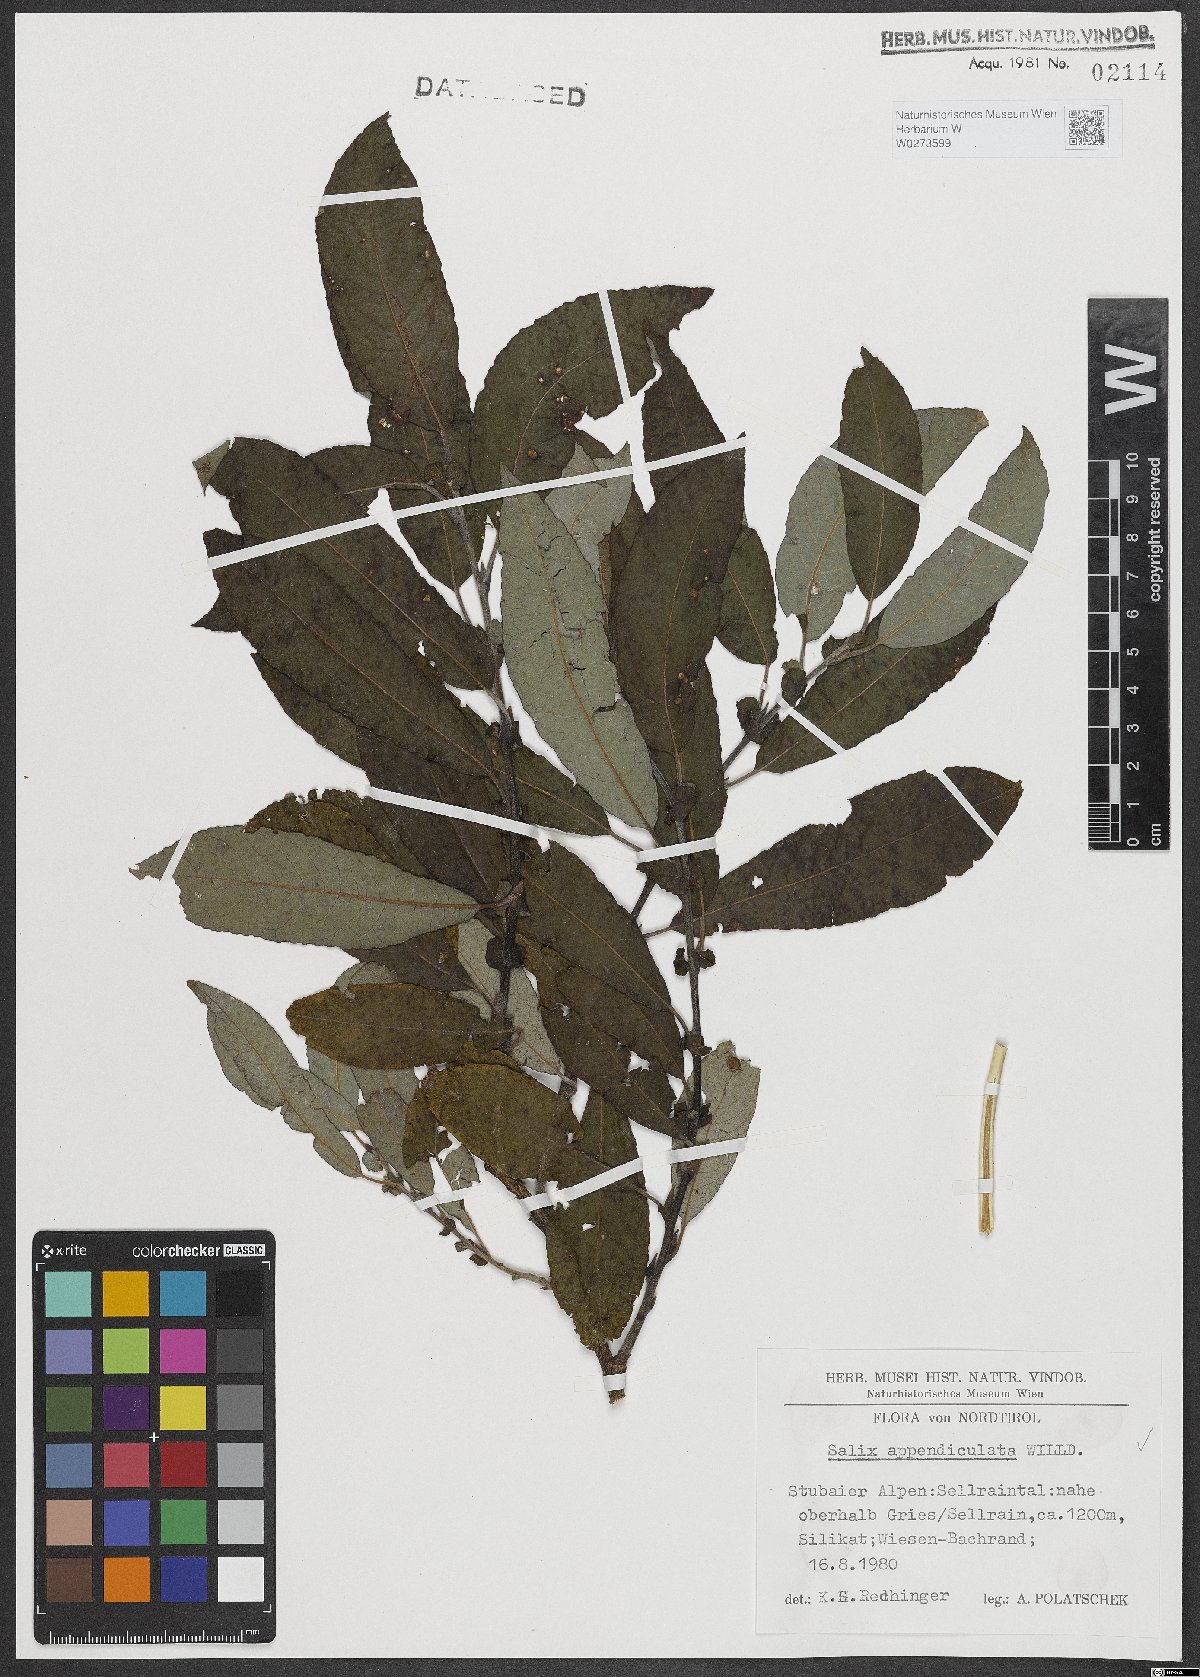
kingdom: Plantae
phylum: Tracheophyta
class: Magnoliopsida
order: Malpighiales
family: Salicaceae
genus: Salix
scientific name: Salix appendiculata
